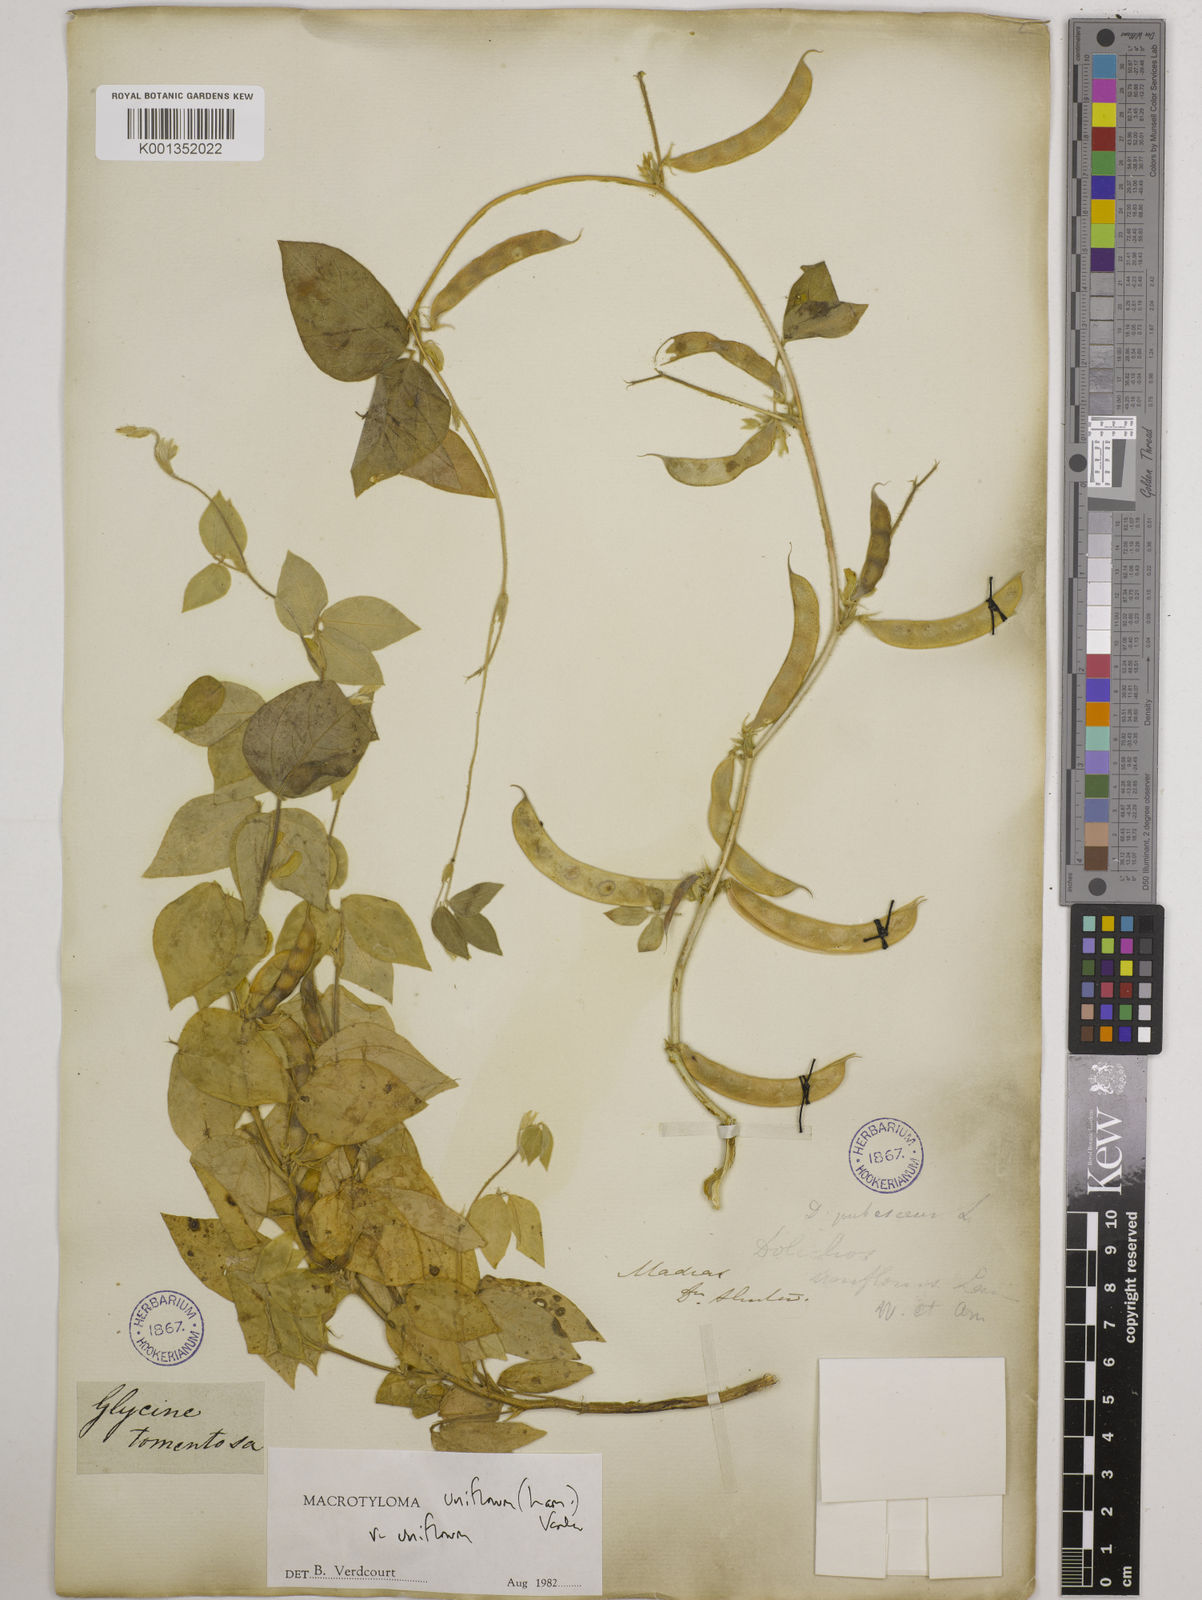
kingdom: Plantae
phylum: Tracheophyta
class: Magnoliopsida
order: Fabales
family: Fabaceae
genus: Macrotyloma
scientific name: Macrotyloma uniflorum
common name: Horse gram
